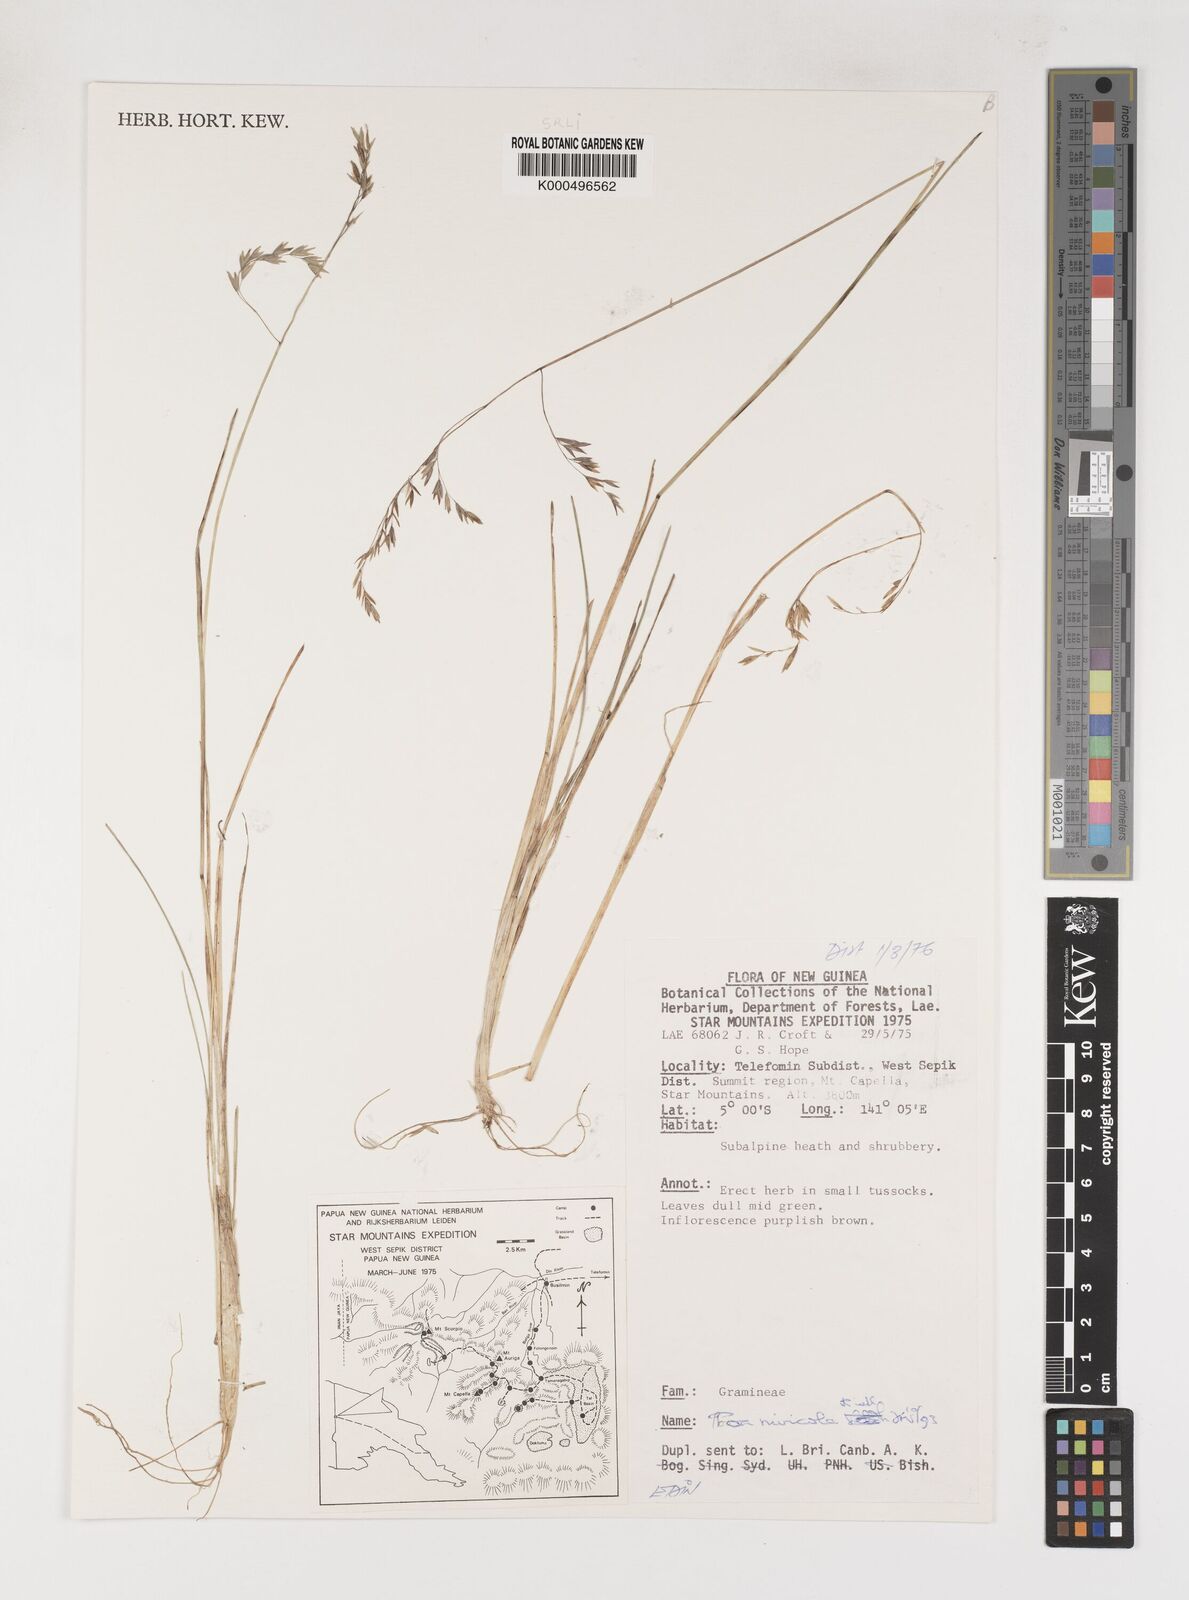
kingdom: Plantae
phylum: Tracheophyta
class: Liliopsida
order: Poales
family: Poaceae
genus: Poa
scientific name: Poa
